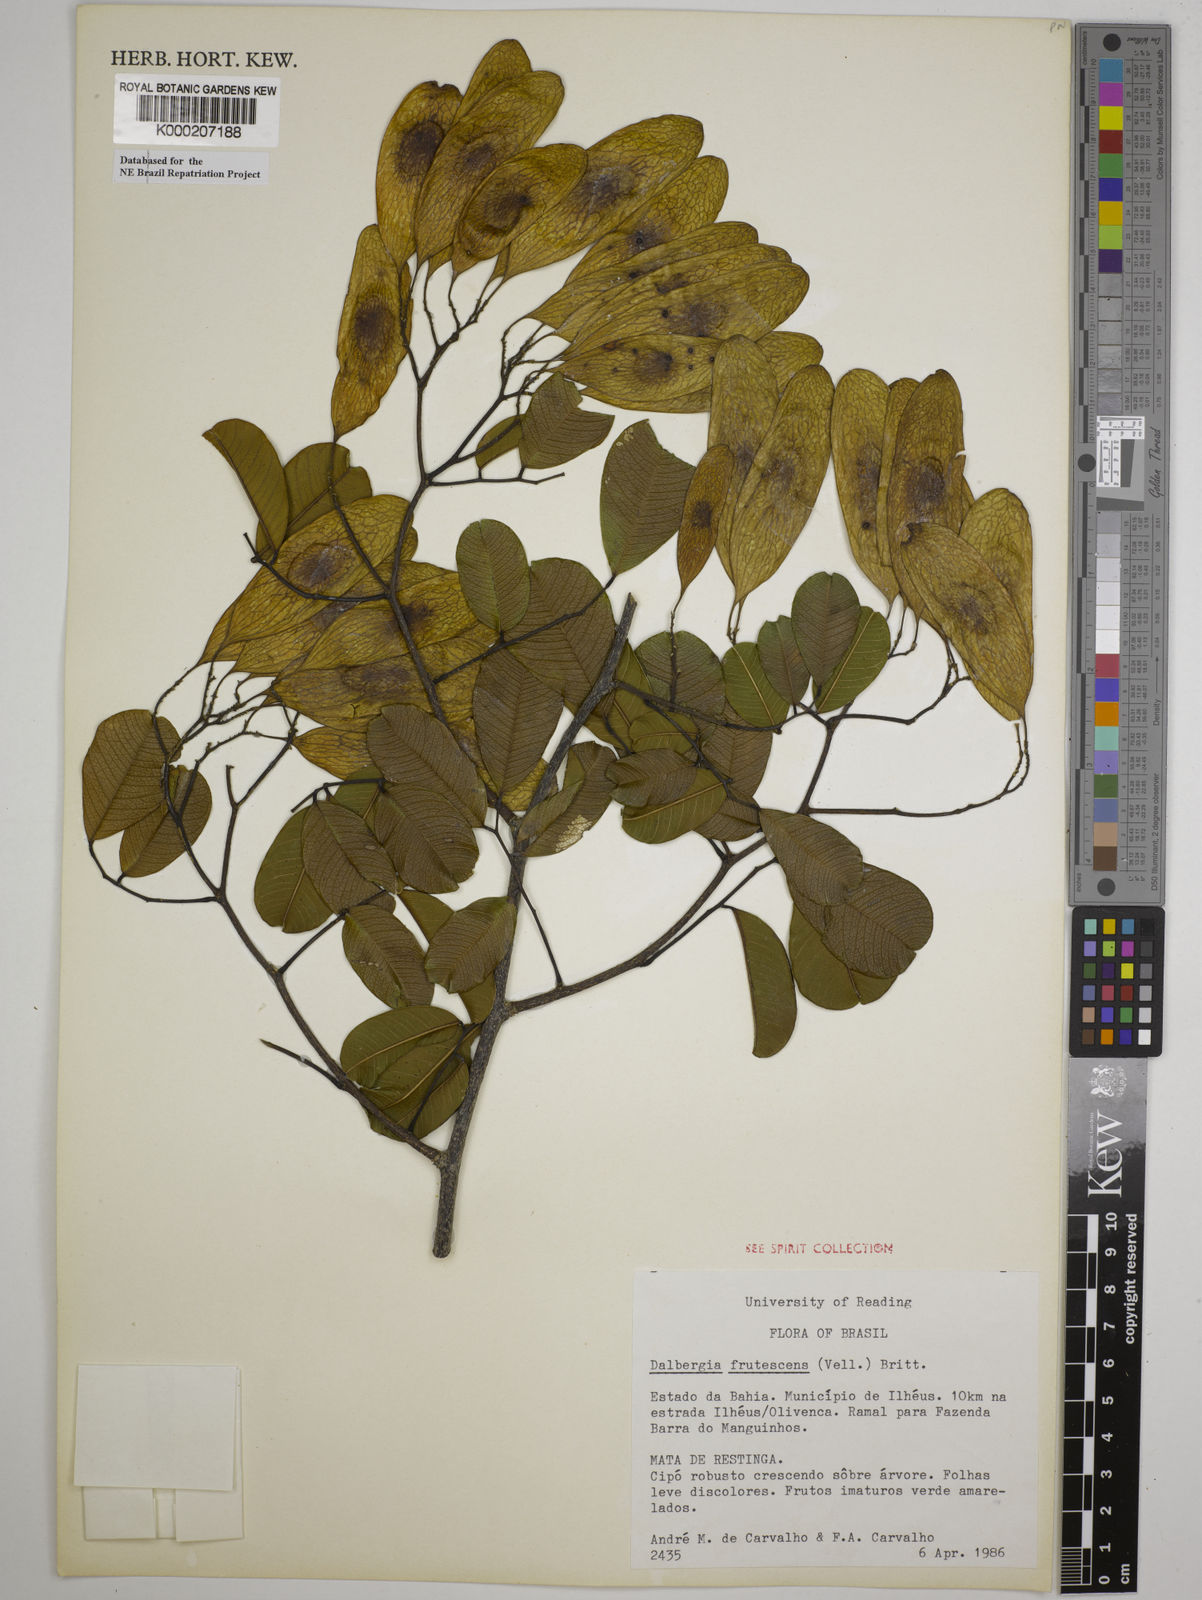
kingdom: Plantae
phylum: Tracheophyta
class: Magnoliopsida
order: Fabales
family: Fabaceae
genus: Dalbergia
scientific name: Dalbergia frutescens
